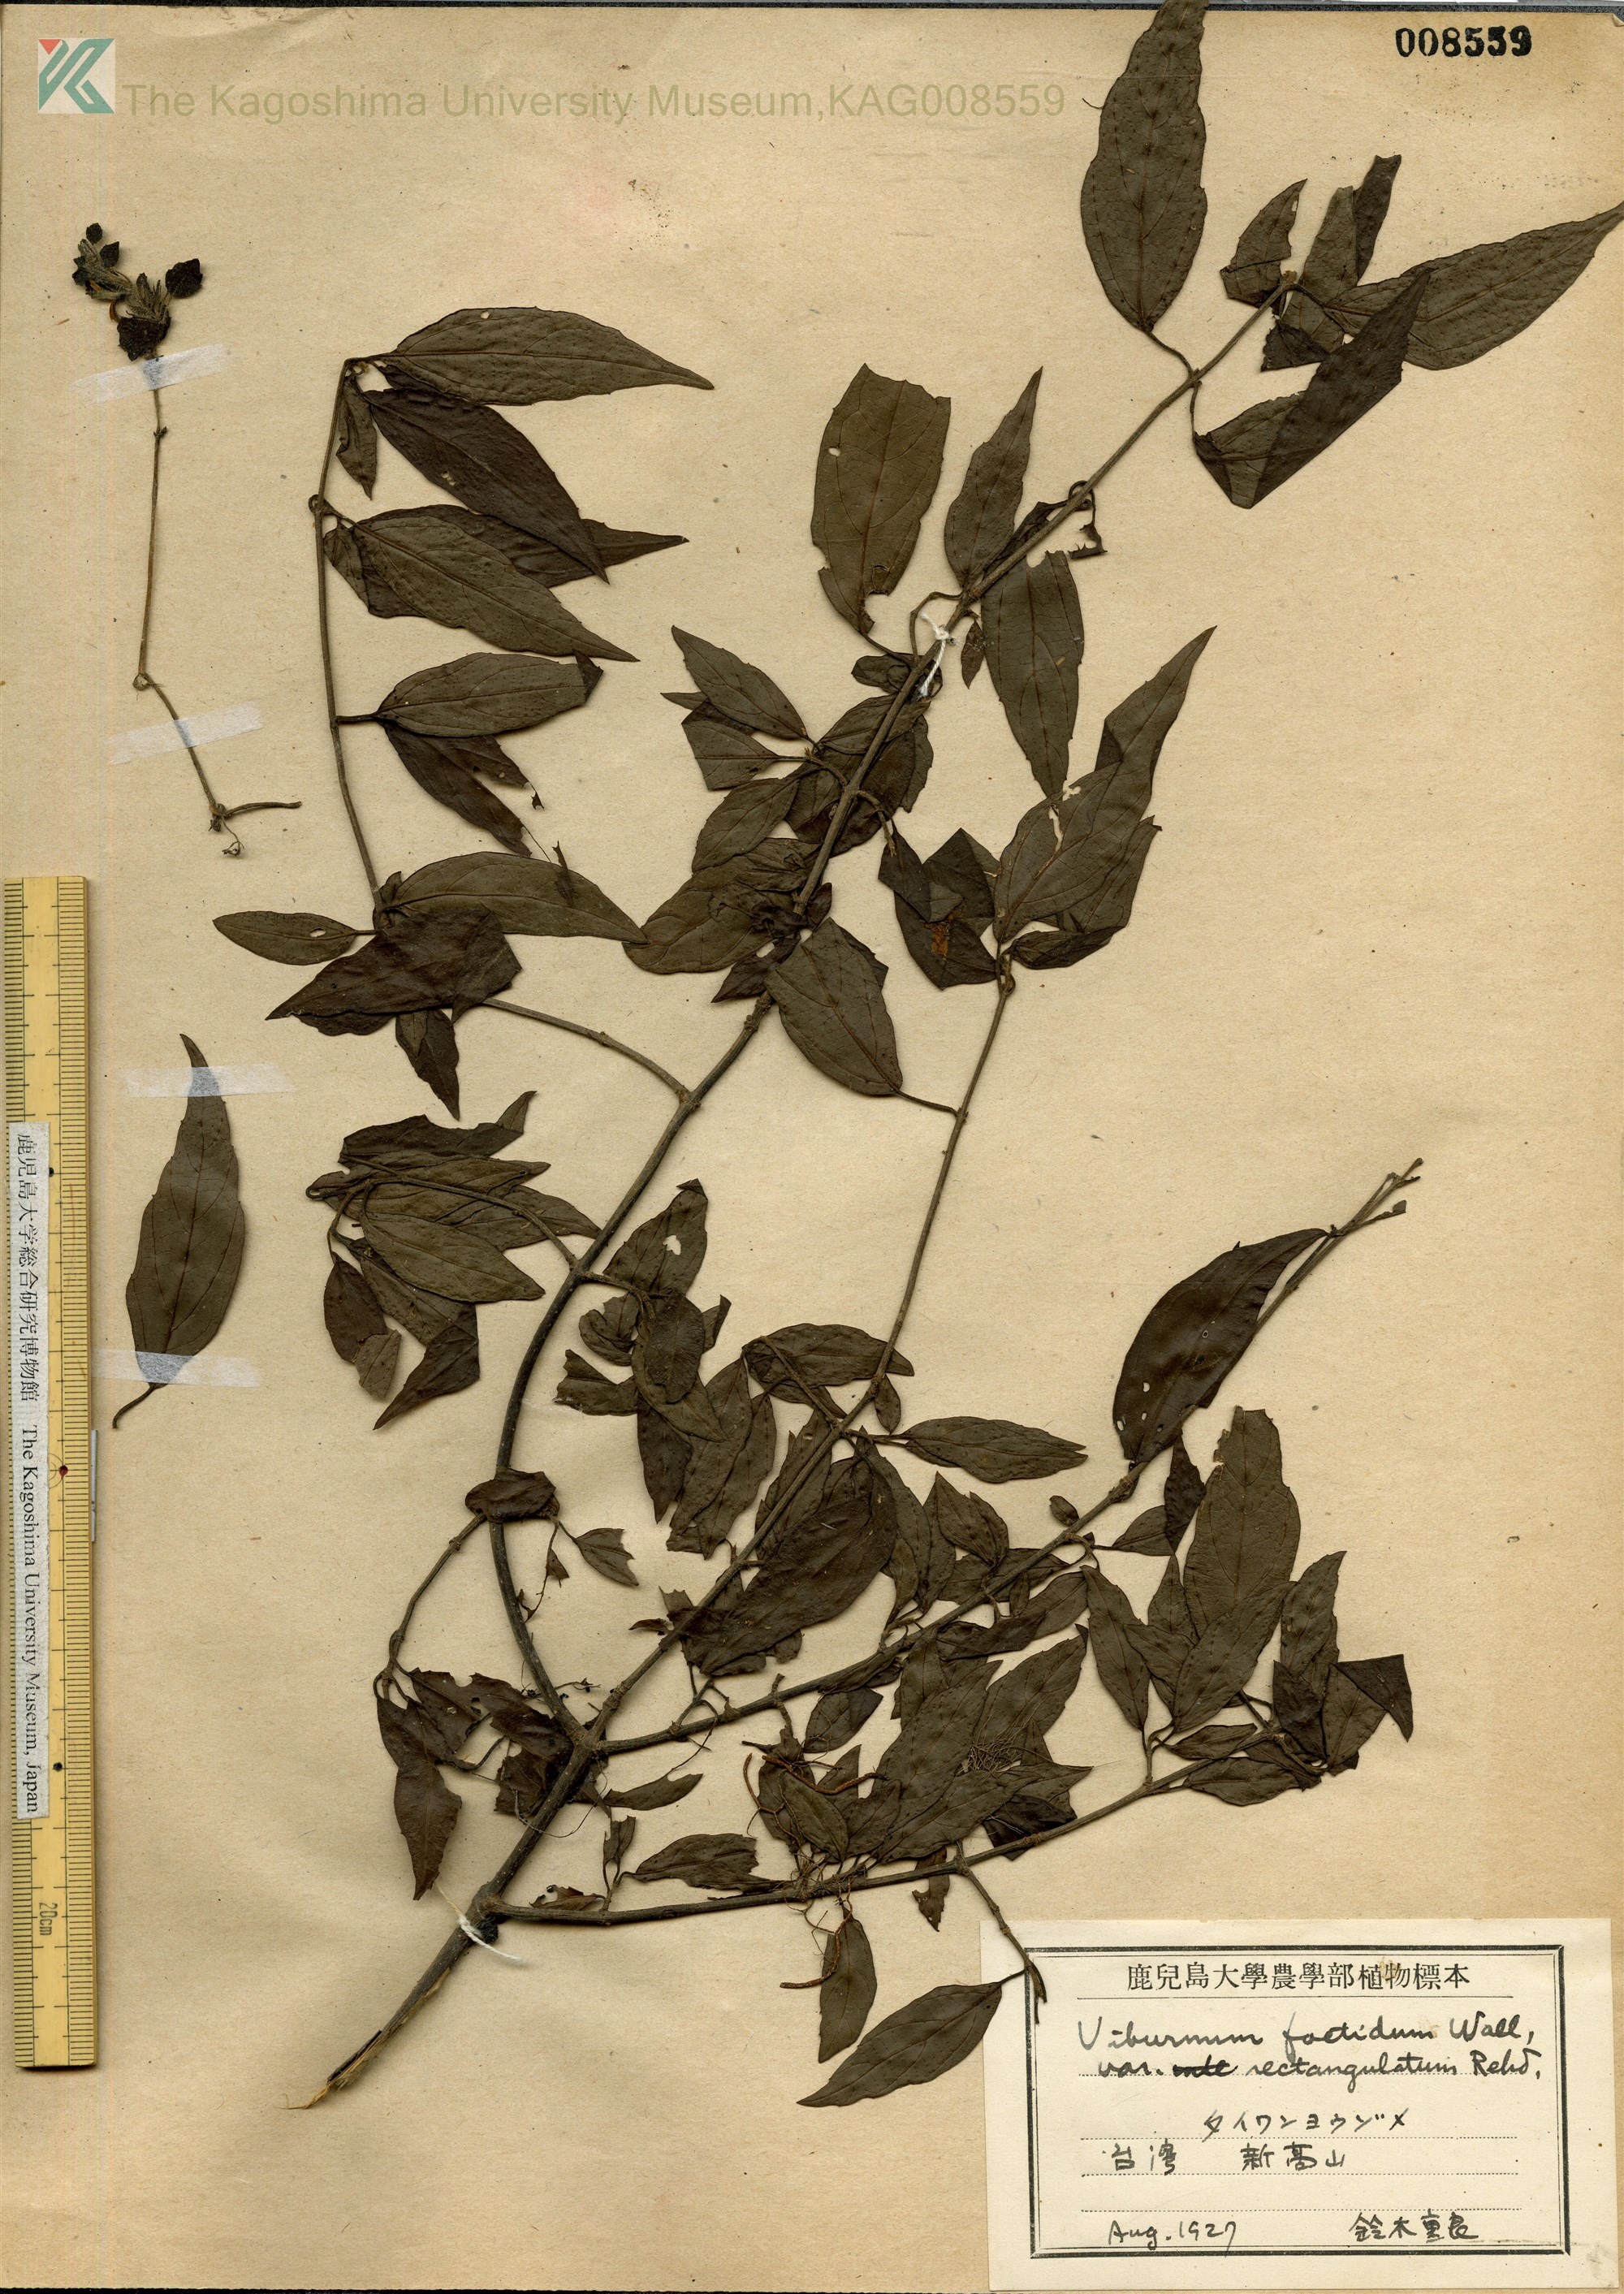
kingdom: Plantae
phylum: Tracheophyta
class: Magnoliopsida
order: Dipsacales
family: Viburnaceae
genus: Viburnum
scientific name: Viburnum foetidum
